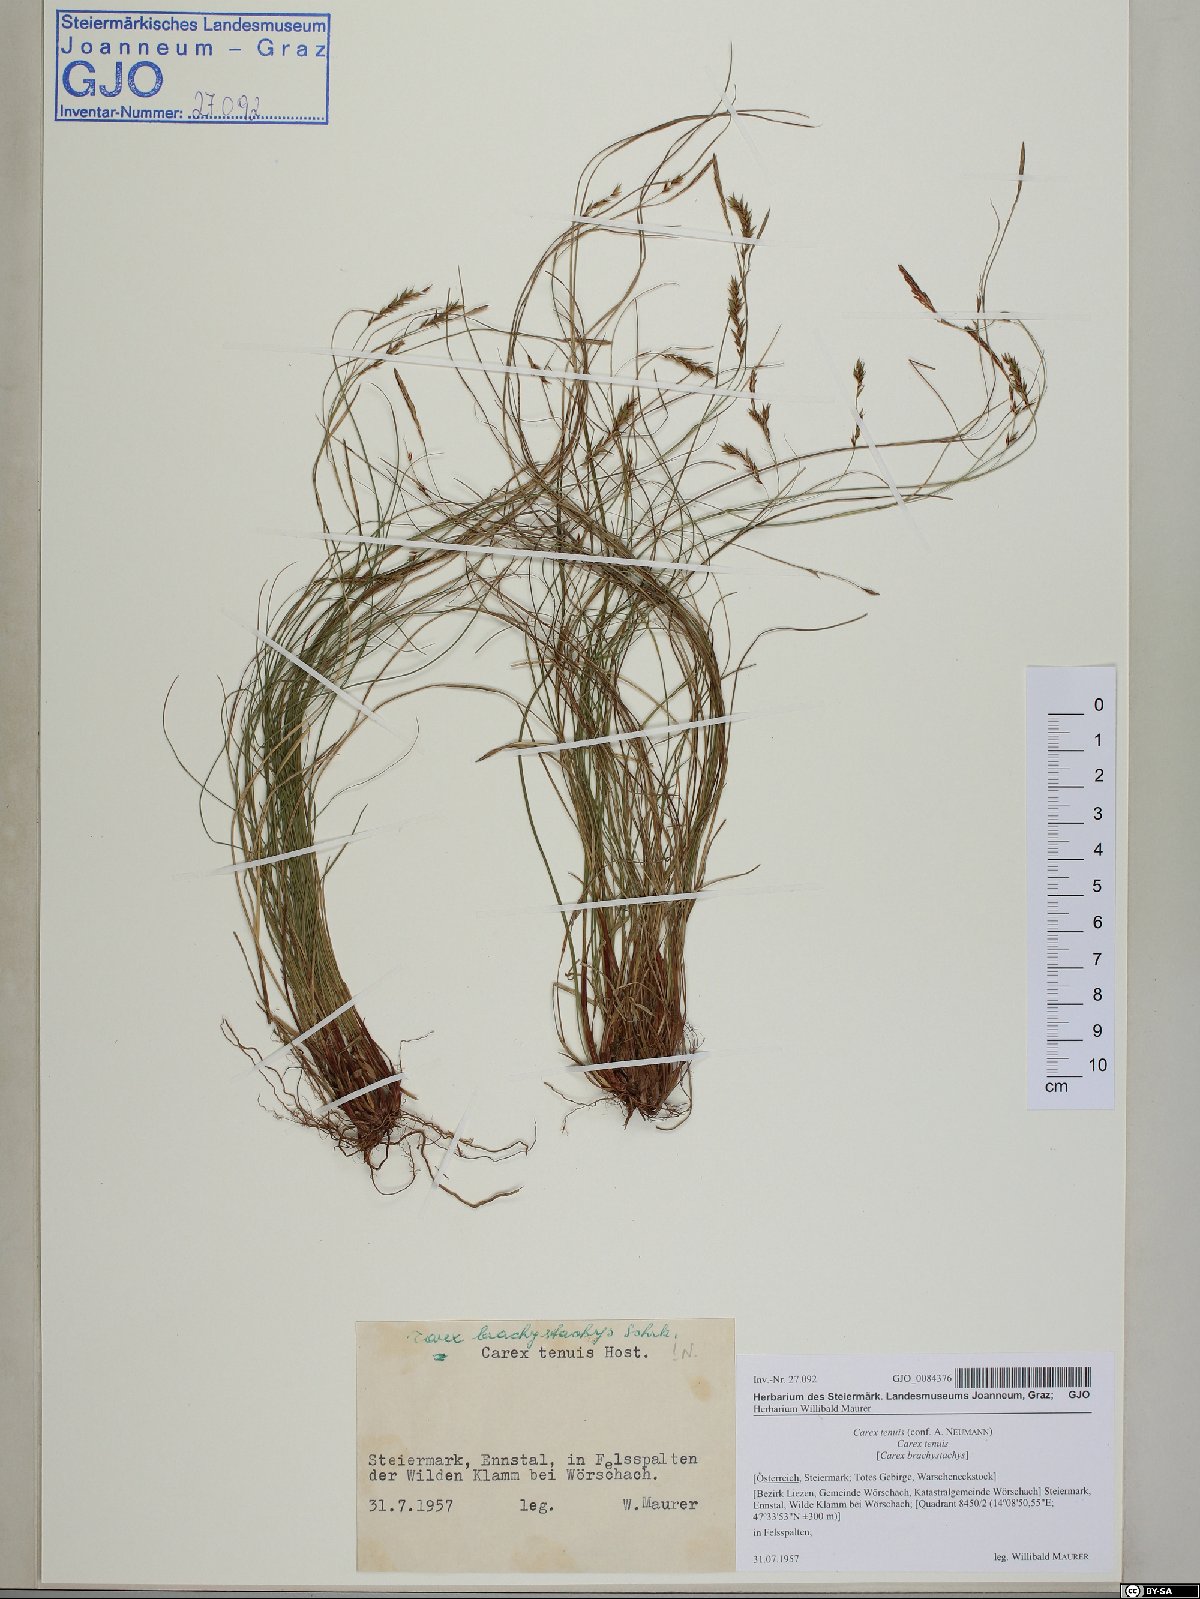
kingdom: Plantae
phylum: Tracheophyta
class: Liliopsida
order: Poales
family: Cyperaceae
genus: Carex
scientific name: Carex brachystachys
